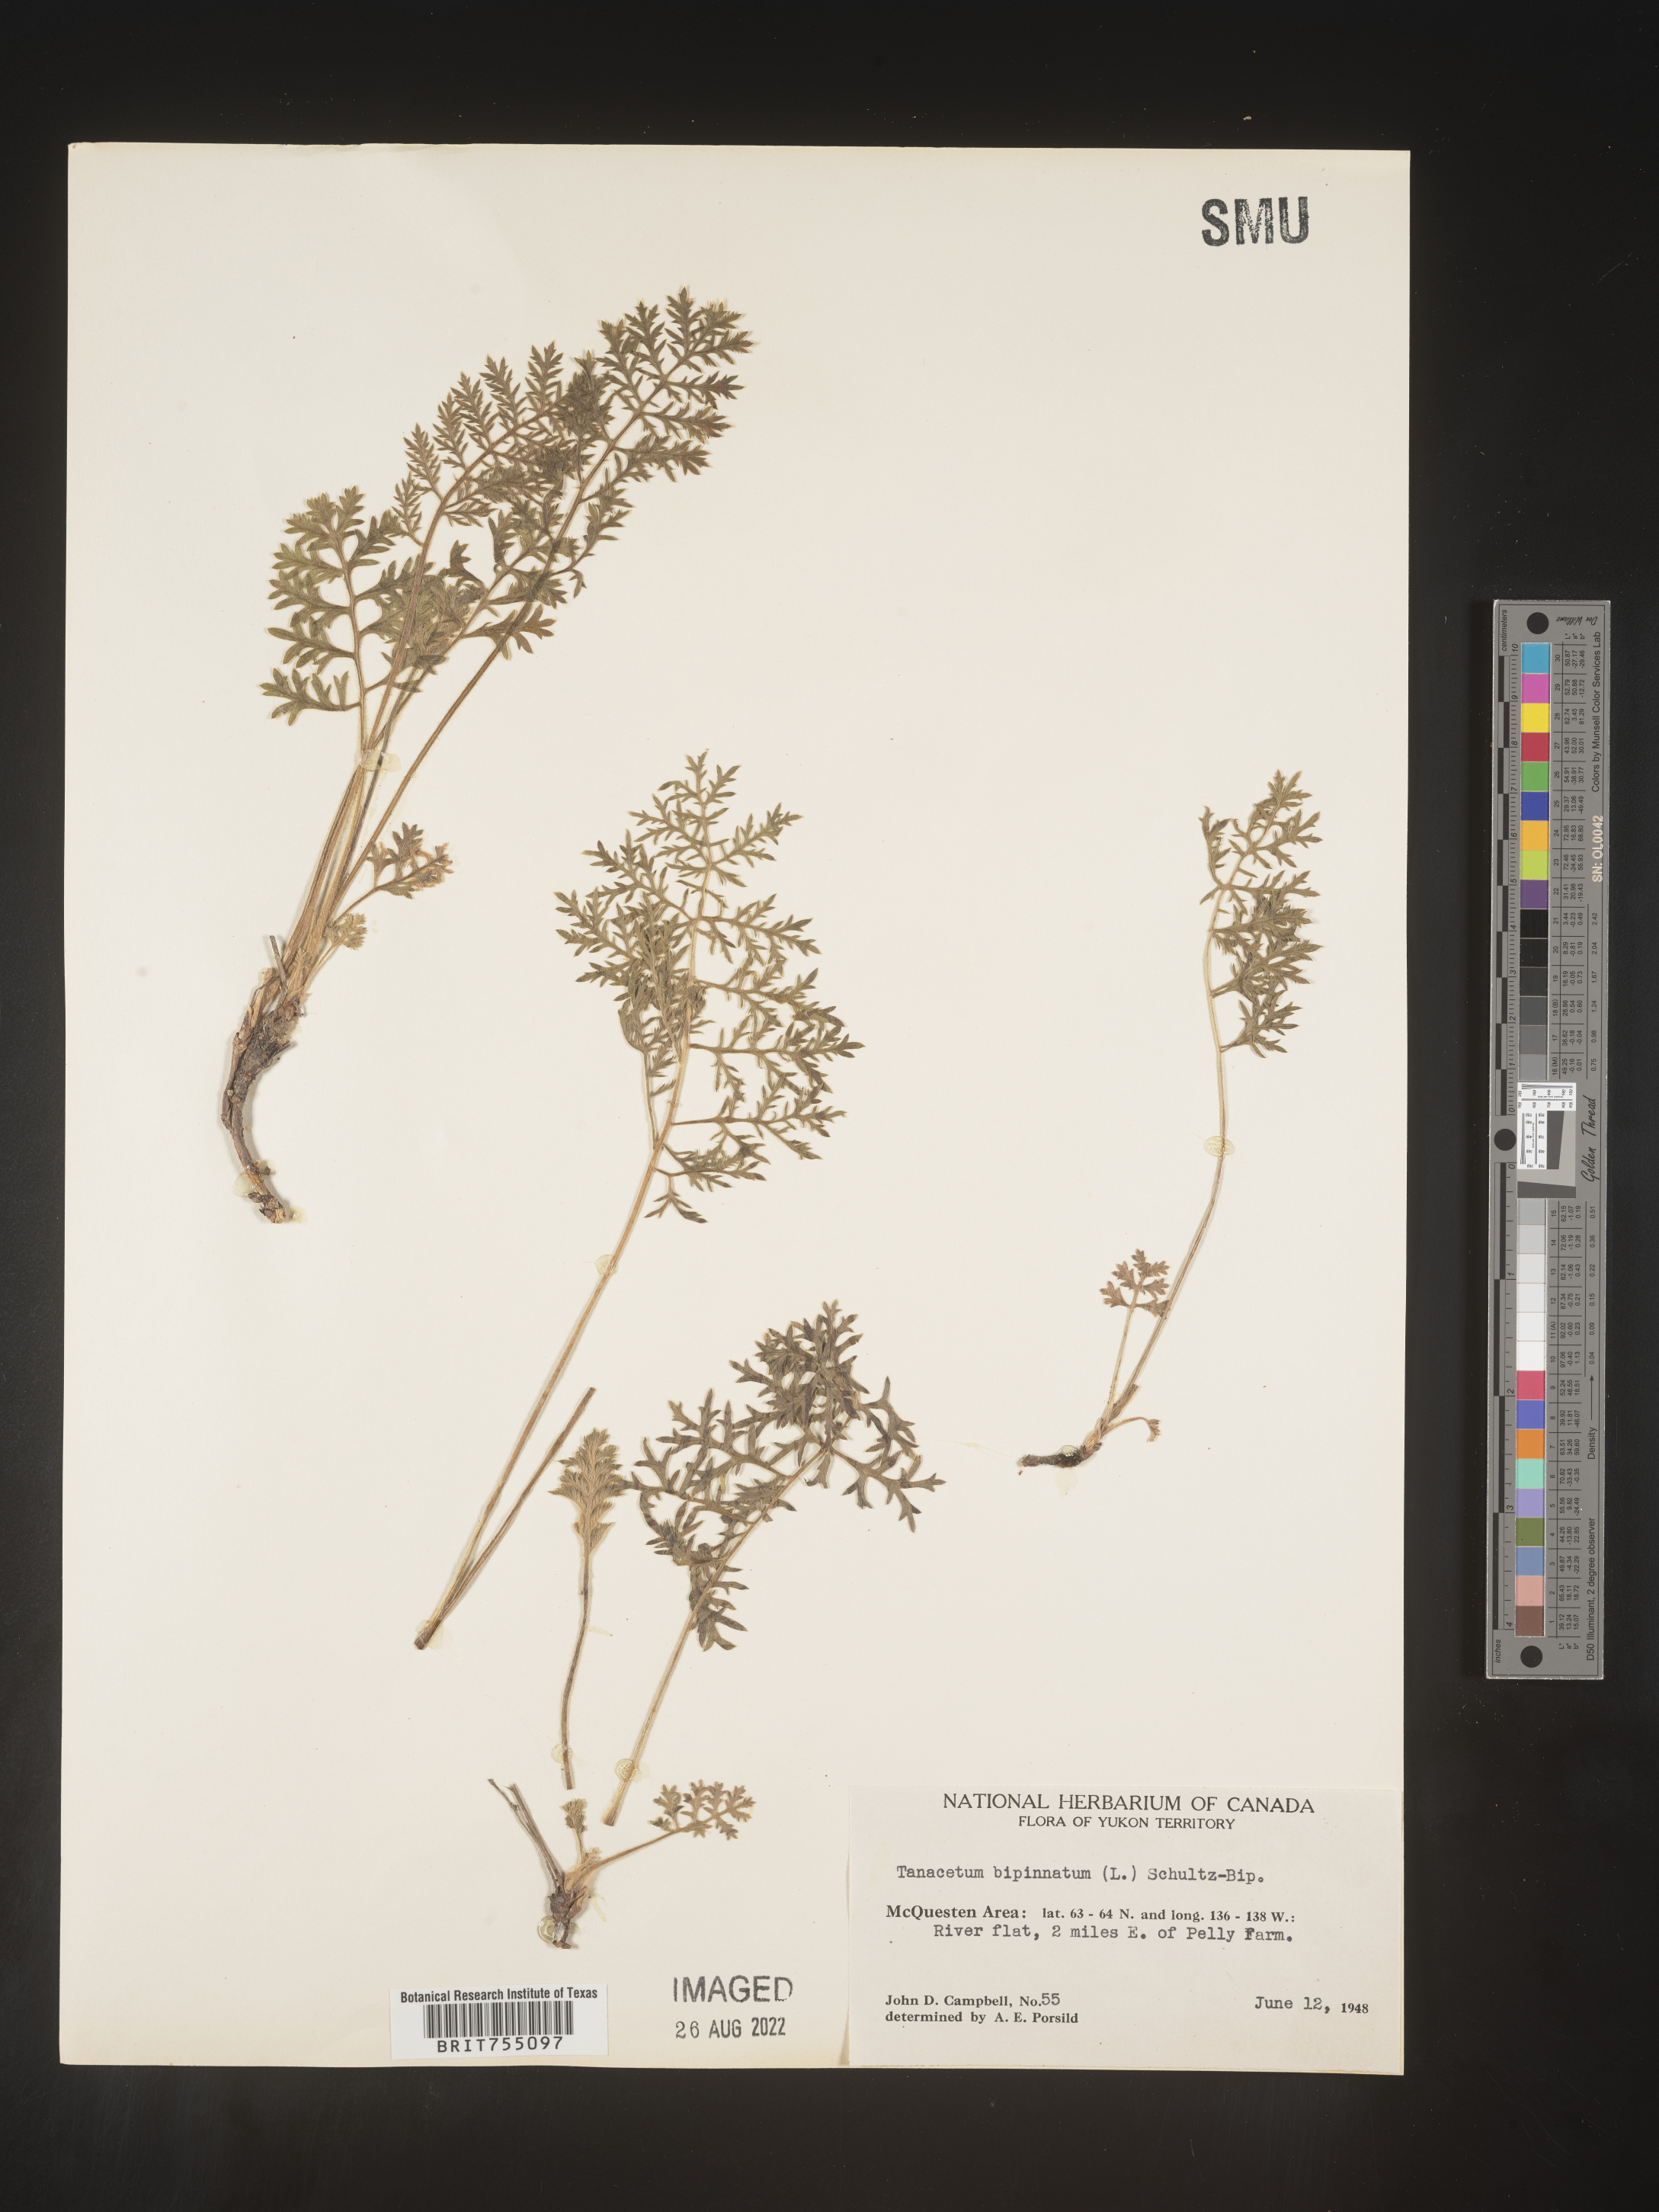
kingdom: Plantae
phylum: Tracheophyta
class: Magnoliopsida
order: Asterales
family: Asteraceae
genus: Tanacetum
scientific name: Tanacetum
